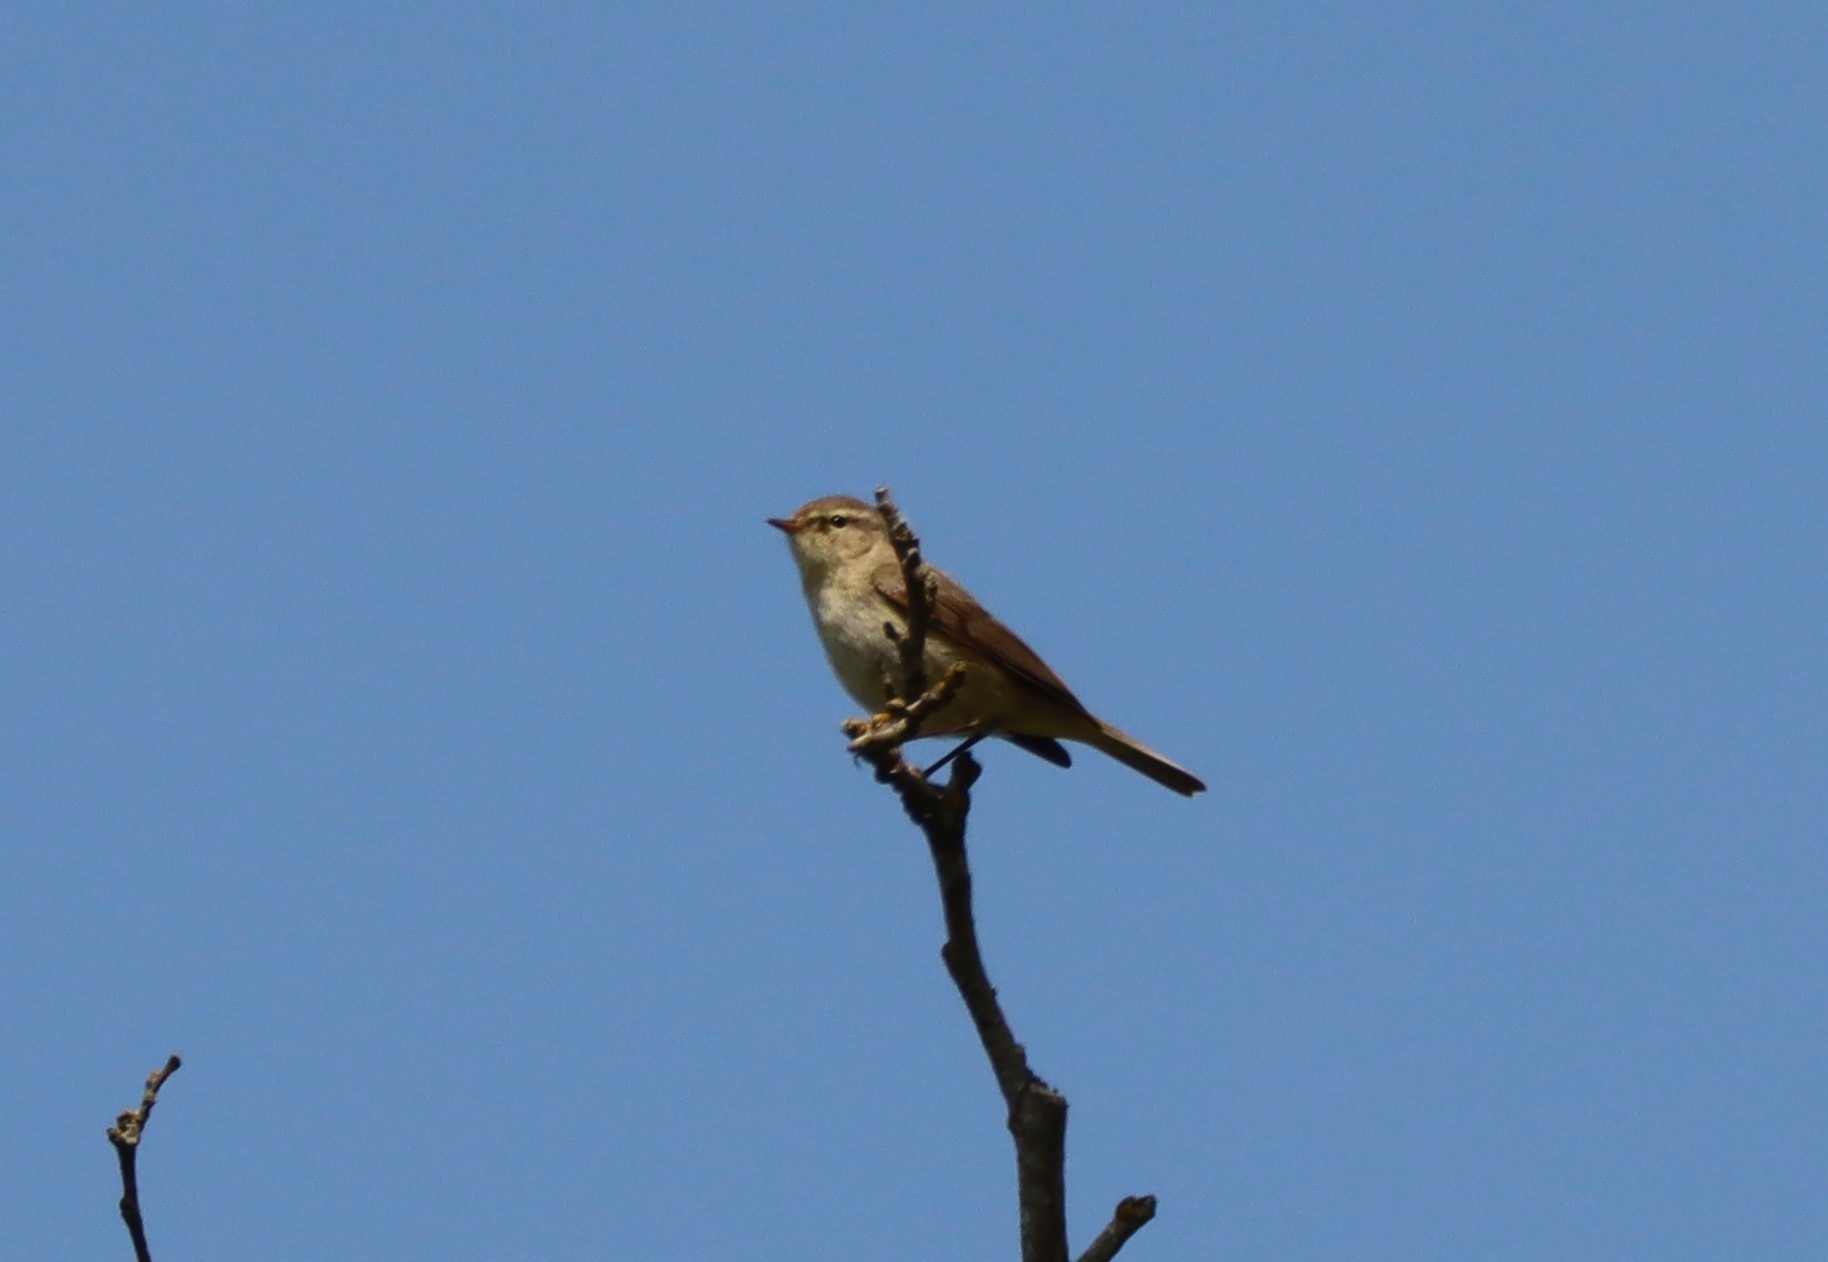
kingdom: Animalia
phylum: Chordata
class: Aves
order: Passeriformes
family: Phylloscopidae
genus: Phylloscopus
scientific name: Phylloscopus collybita
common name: Gransanger
